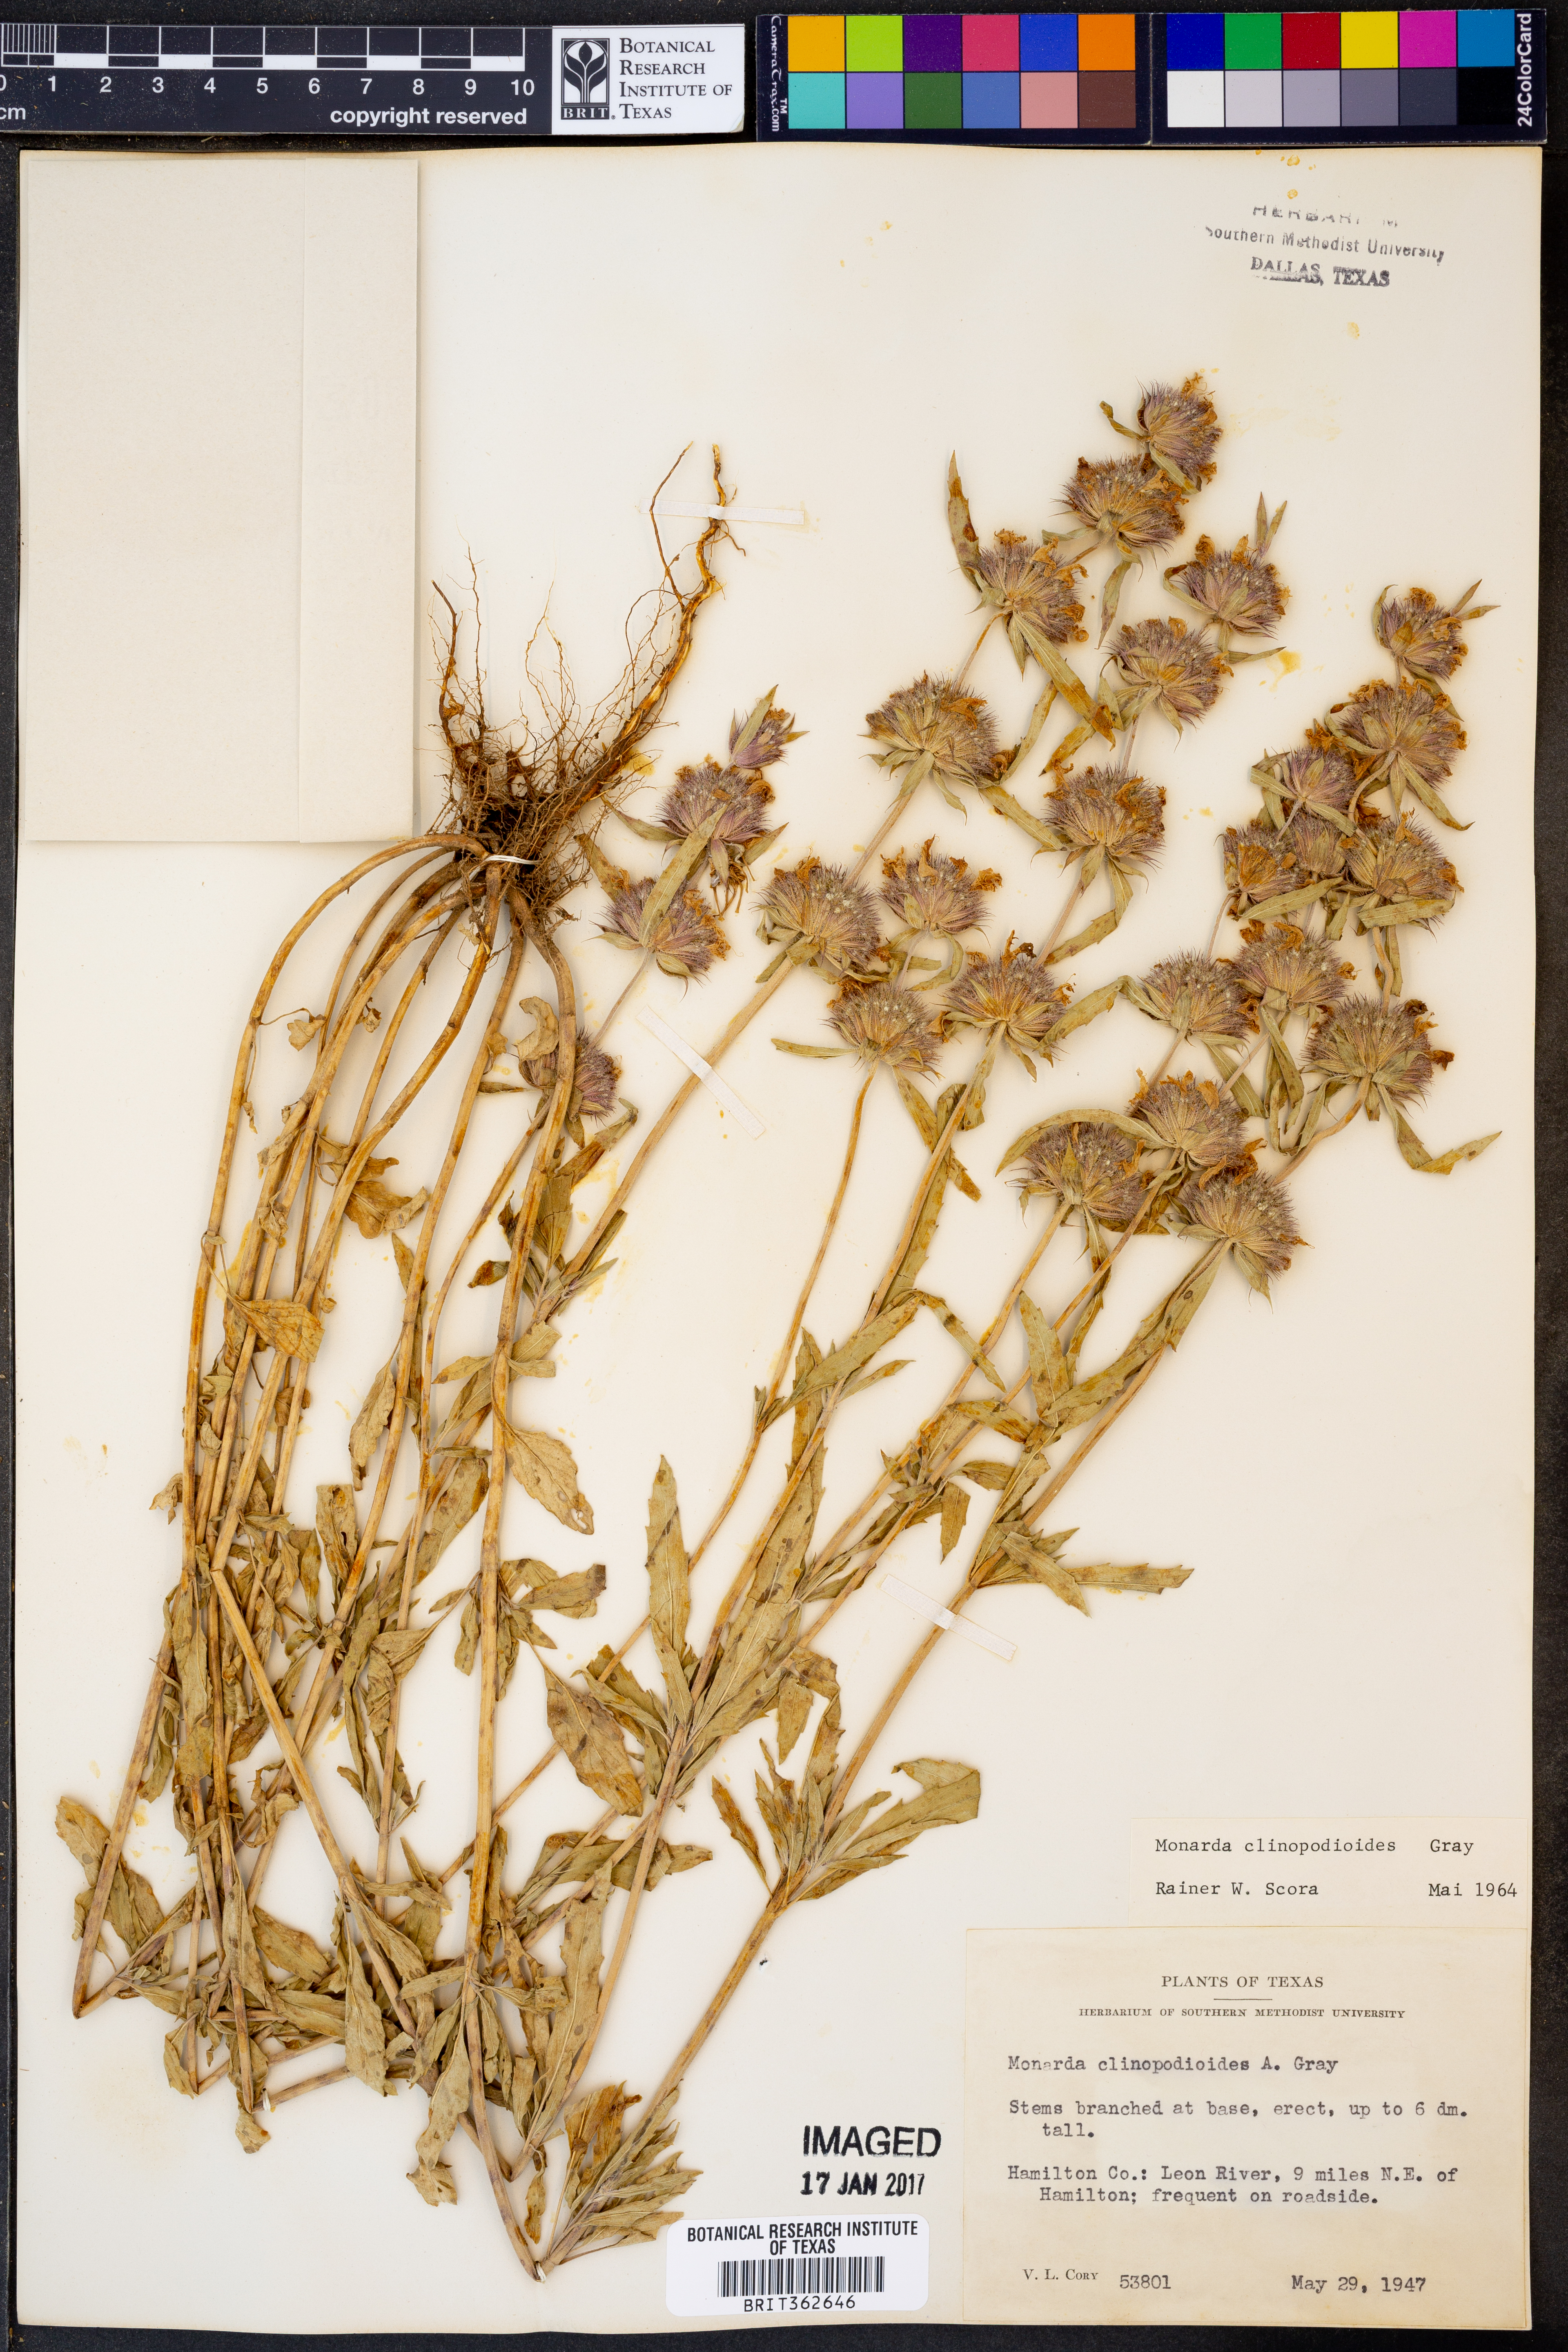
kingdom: Plantae
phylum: Tracheophyta
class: Magnoliopsida
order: Lamiales
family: Lamiaceae
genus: Monarda
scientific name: Monarda clinopodioides
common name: Basil beebalm
